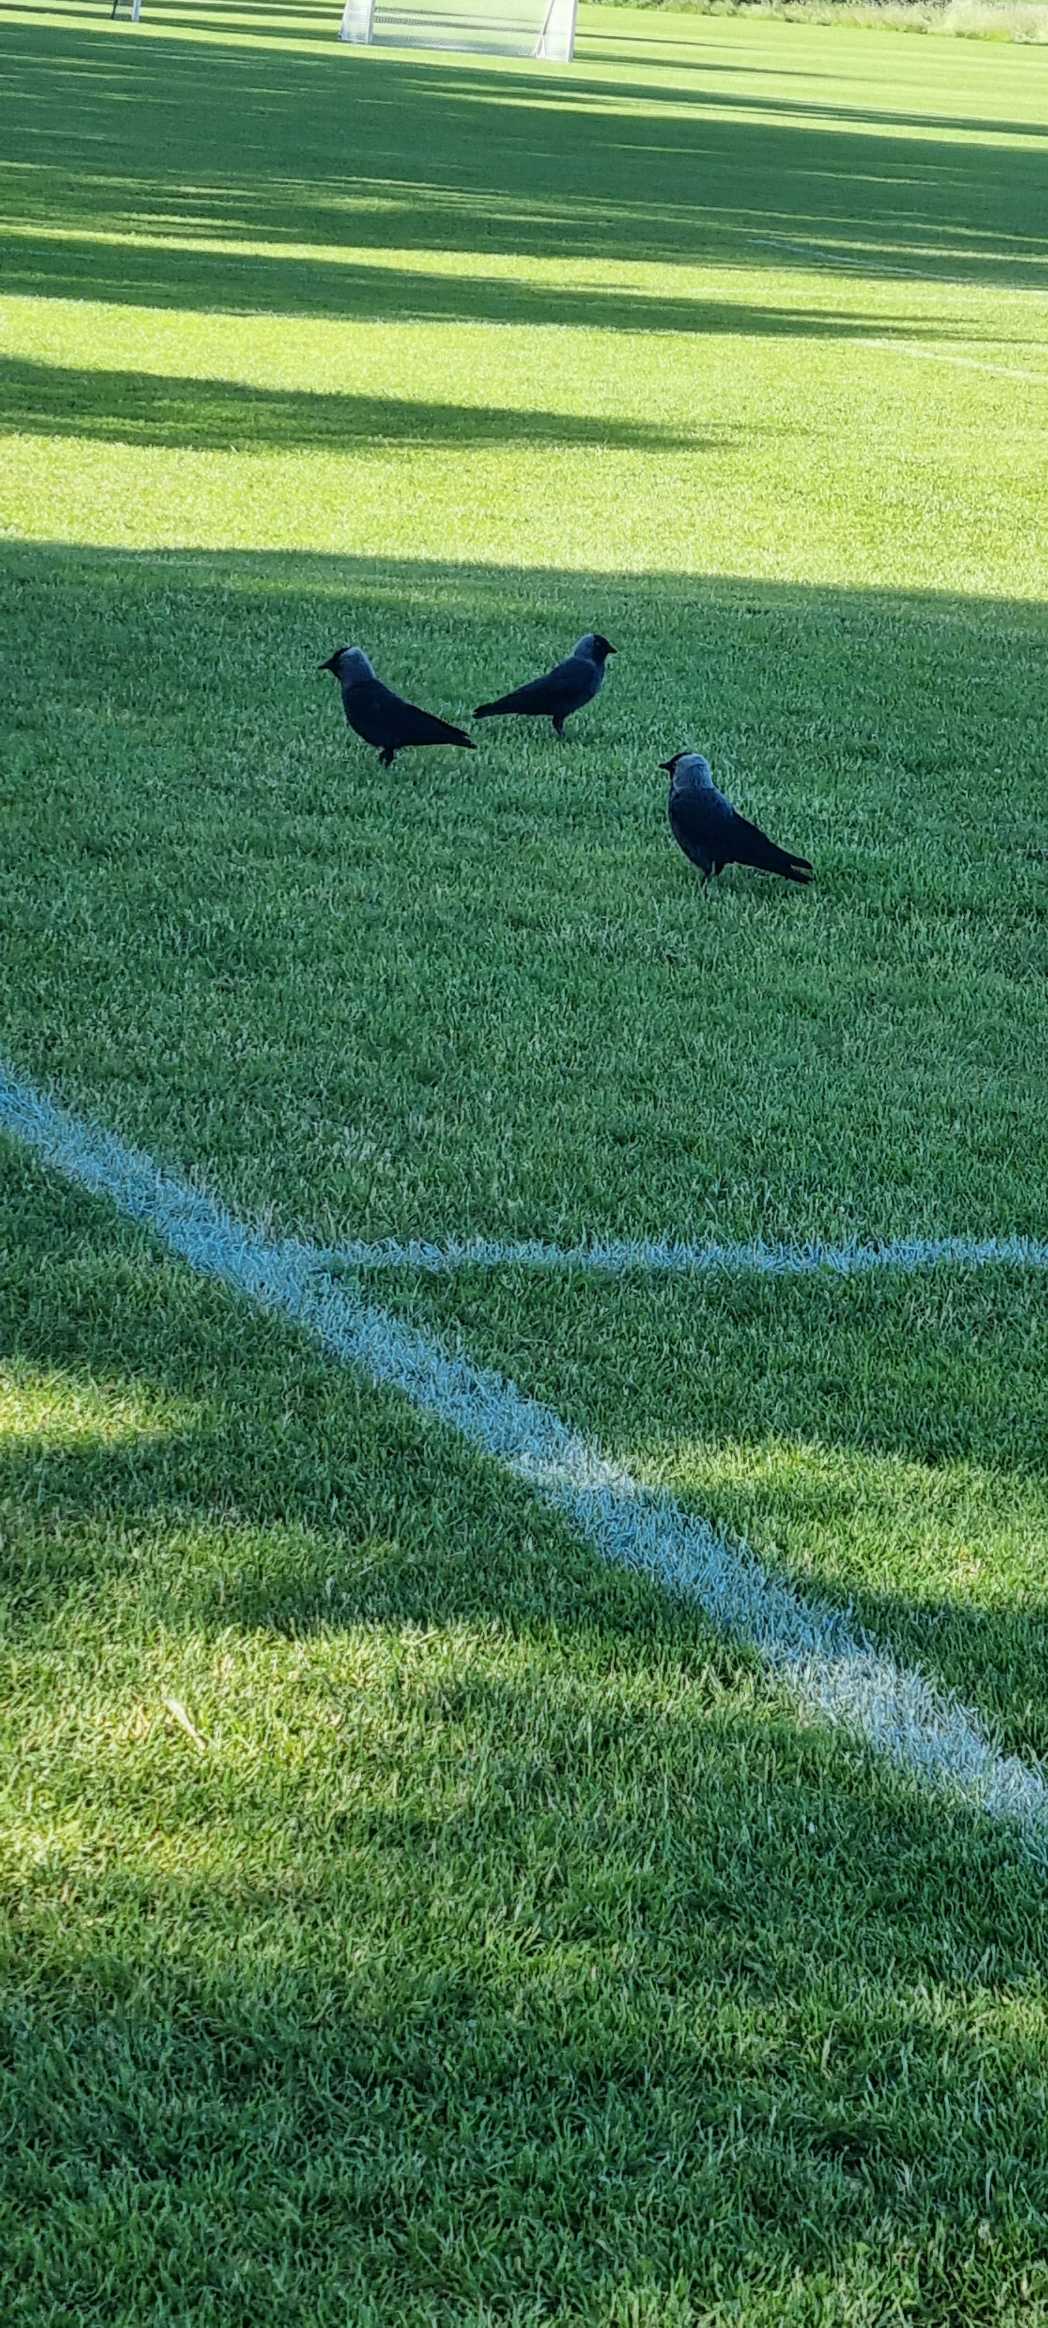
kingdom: Animalia
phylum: Chordata
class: Aves
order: Passeriformes
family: Corvidae
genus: Coloeus
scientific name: Coloeus monedula
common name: Allike
